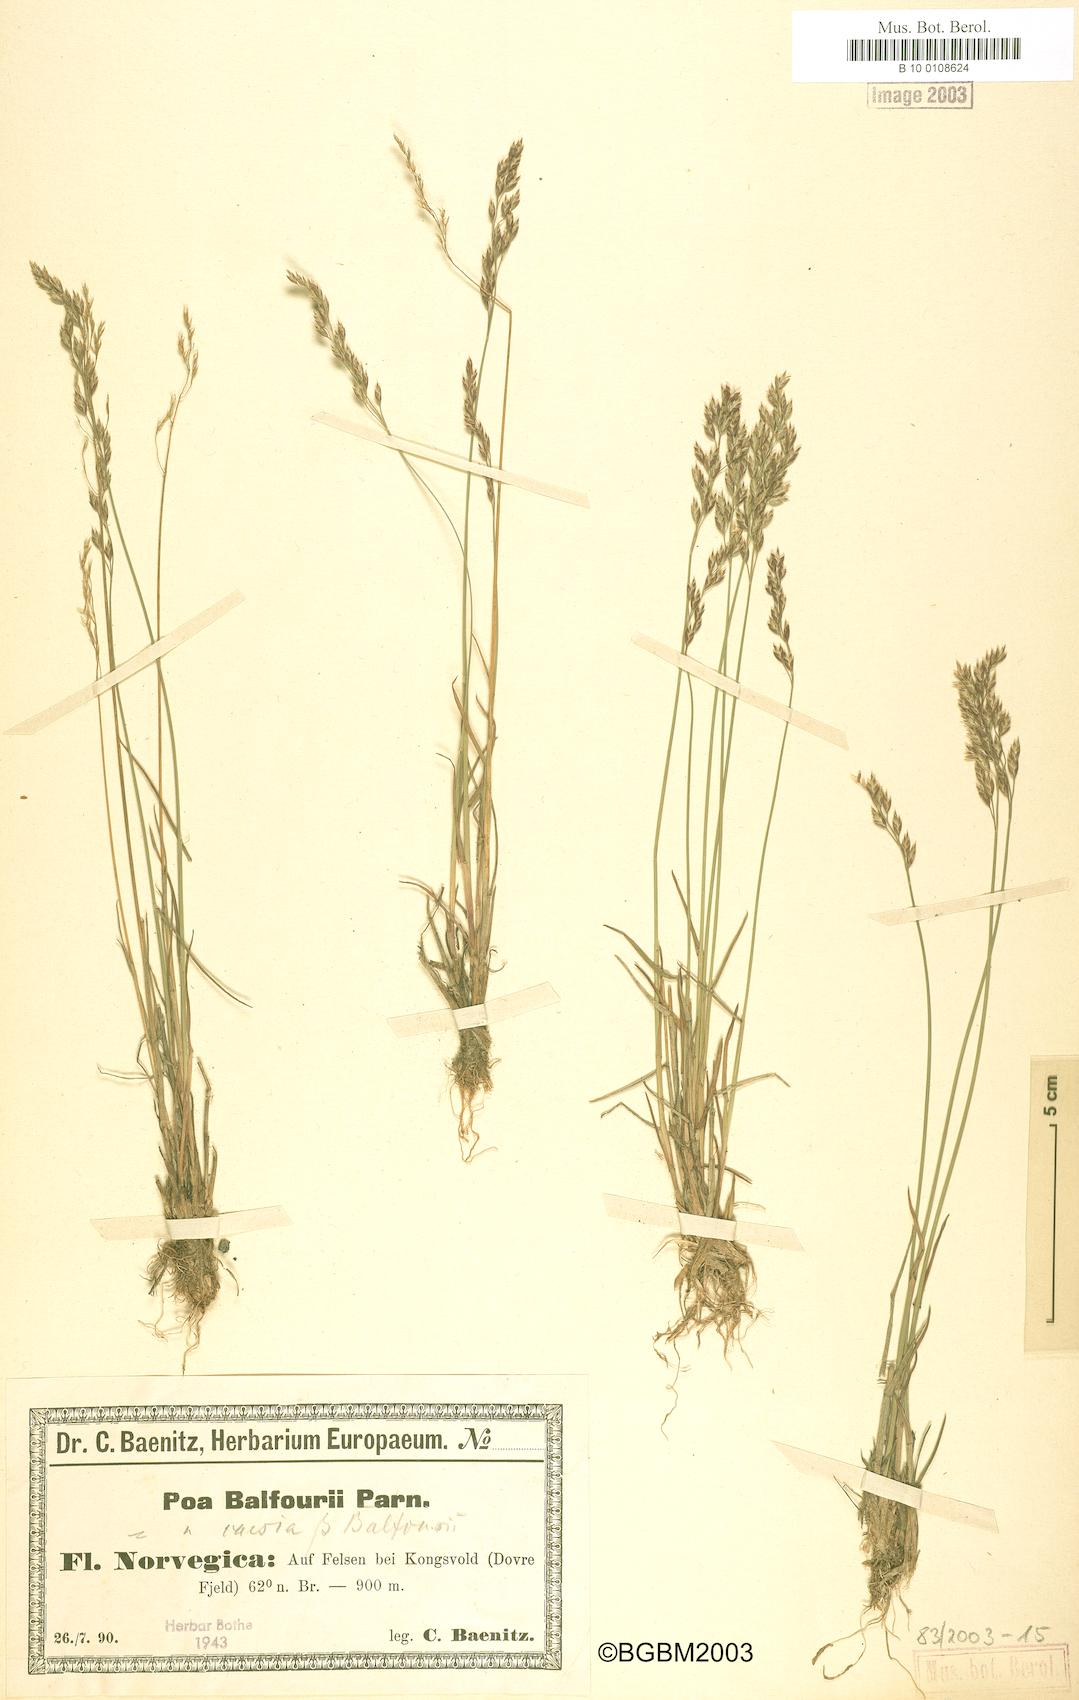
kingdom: Plantae
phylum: Tracheophyta
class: Liliopsida
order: Poales
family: Poaceae
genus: Poa
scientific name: Poa glauca
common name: Glaucous bluegrass
